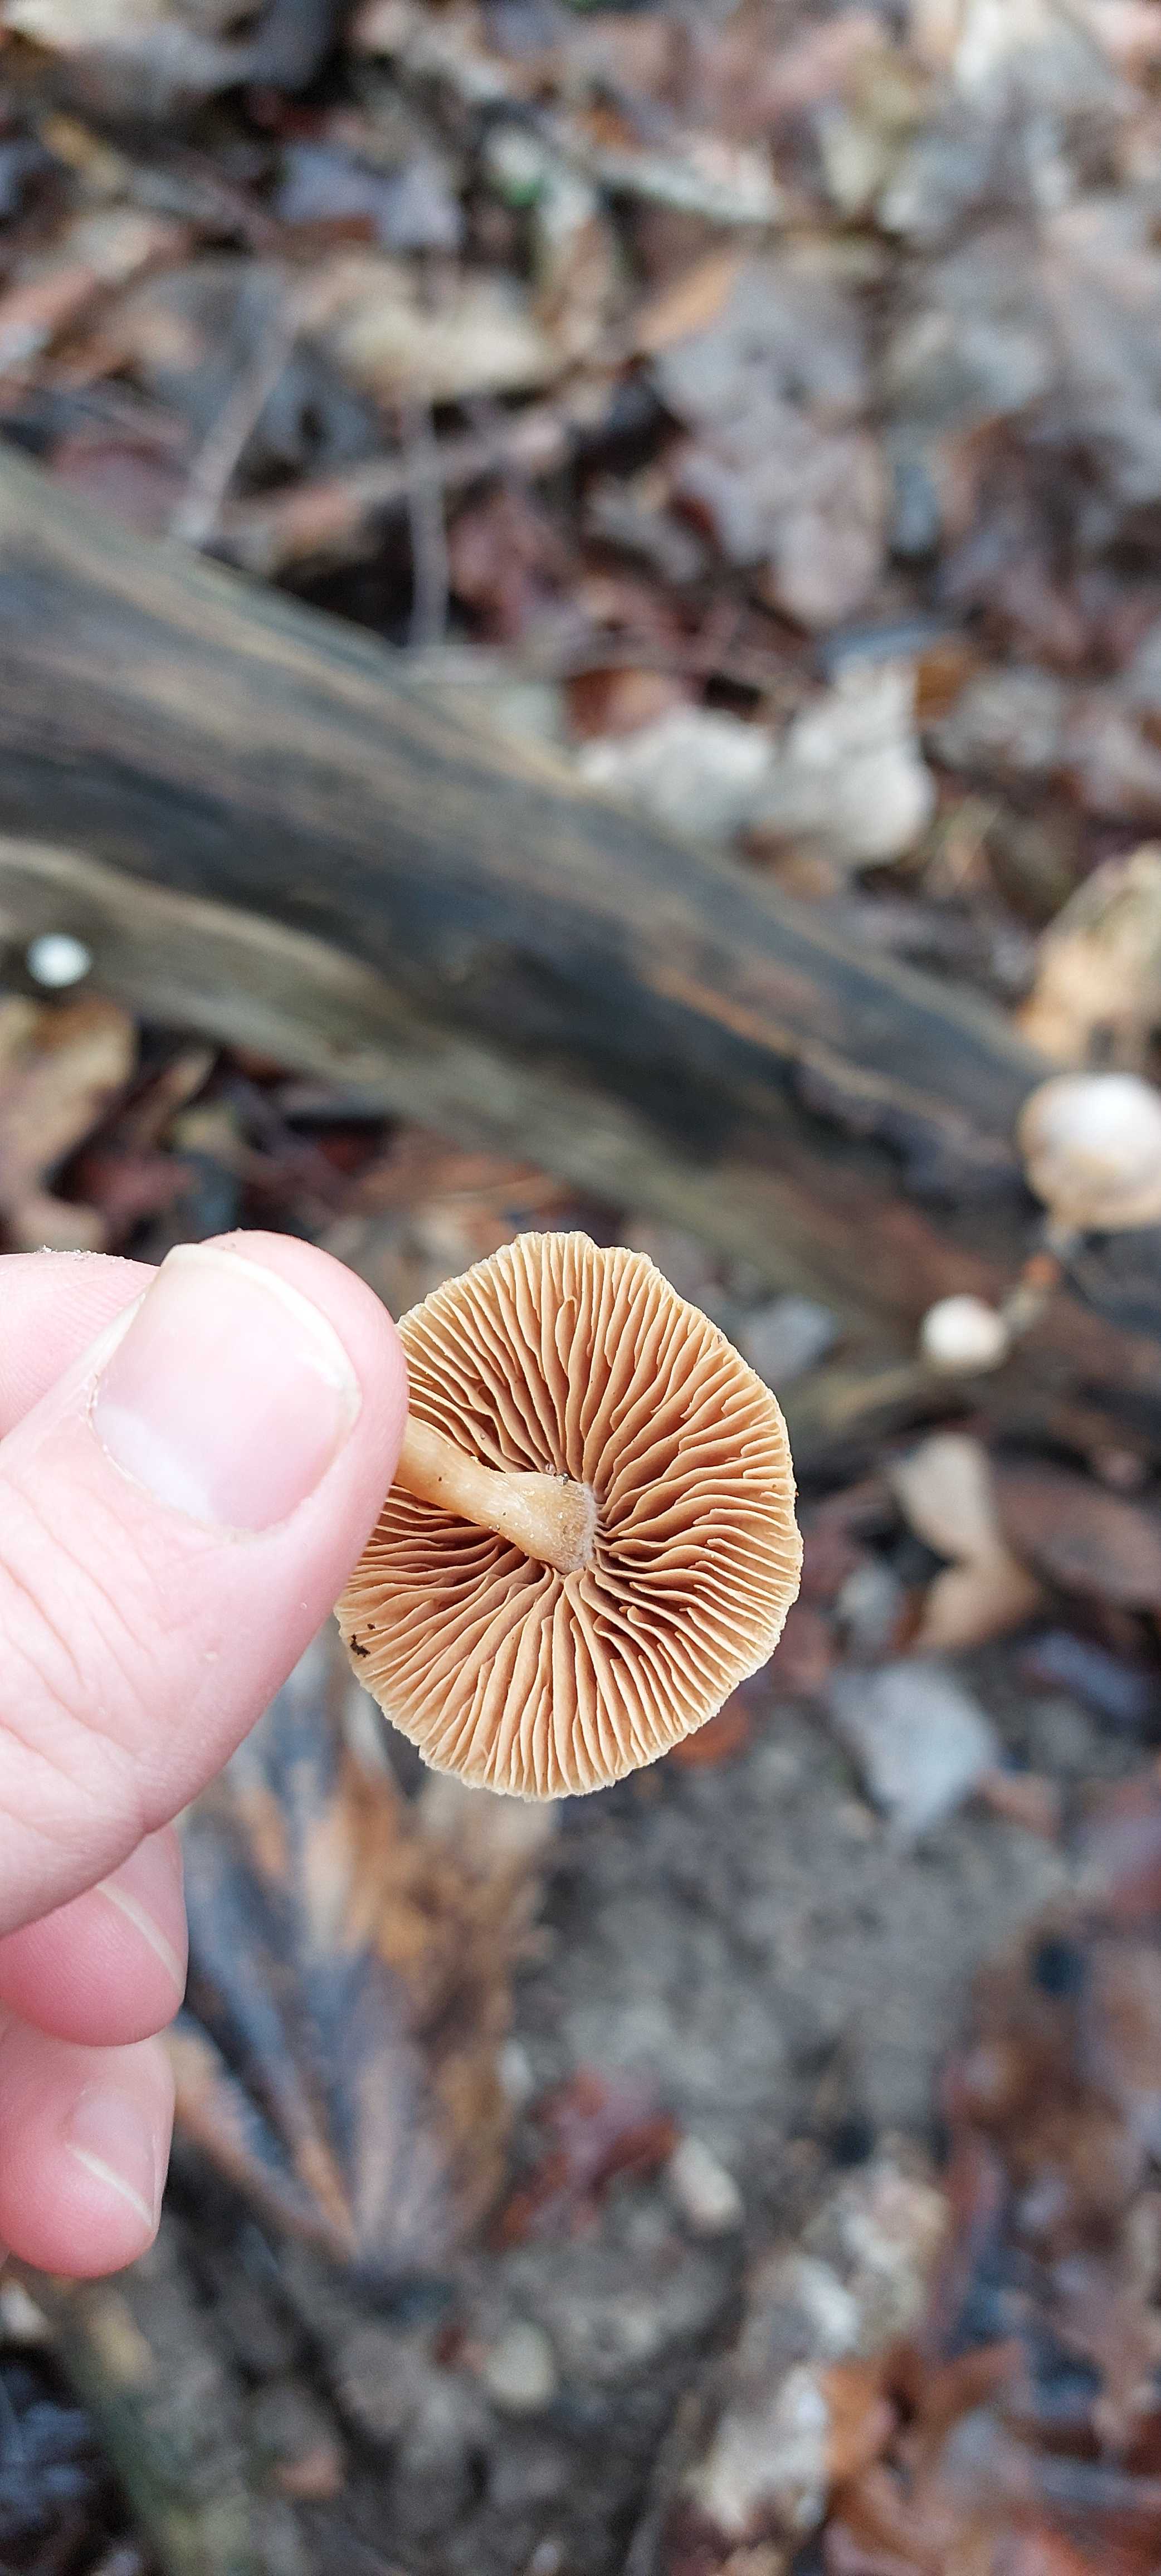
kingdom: Fungi
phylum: Basidiomycota
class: Agaricomycetes
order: Agaricales
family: Tubariaceae
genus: Tubaria
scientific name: Tubaria furfuracea
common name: kliddet fnughat
